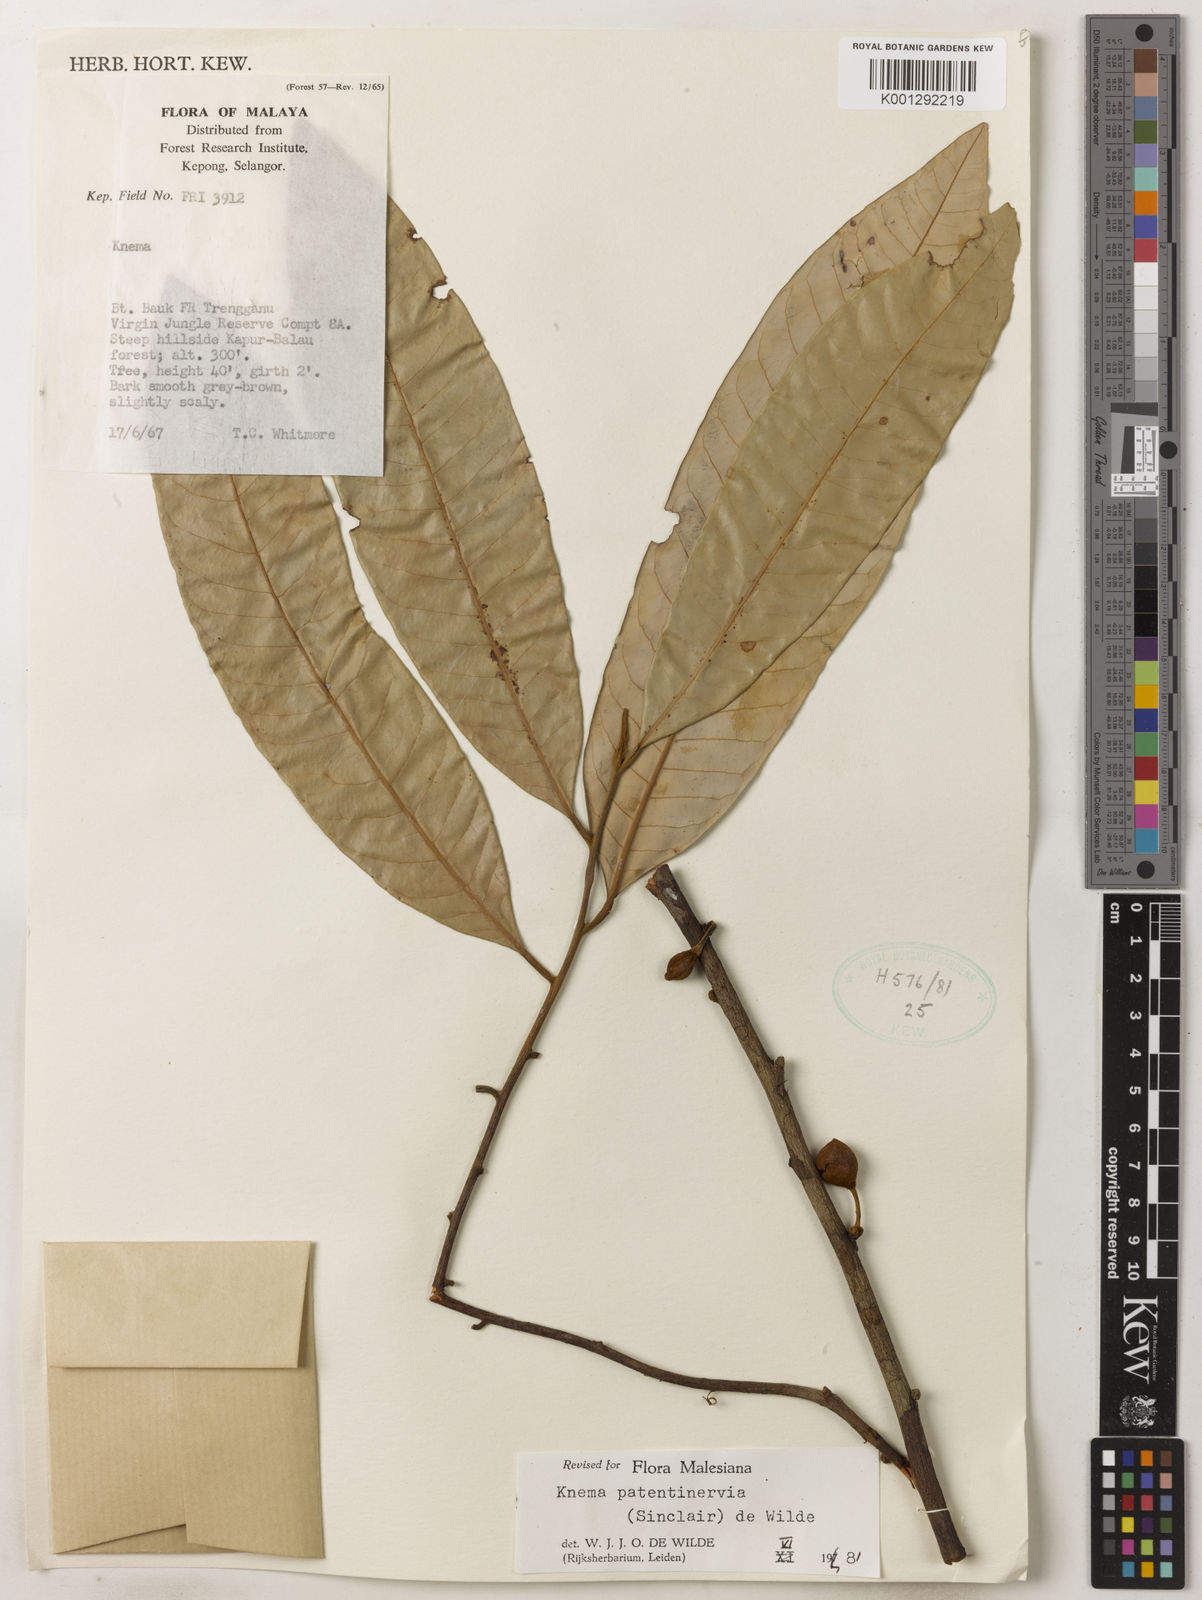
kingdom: Plantae
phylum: Tracheophyta
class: Magnoliopsida
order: Magnoliales
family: Myristicaceae
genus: Knema
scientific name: Knema patentinervia
